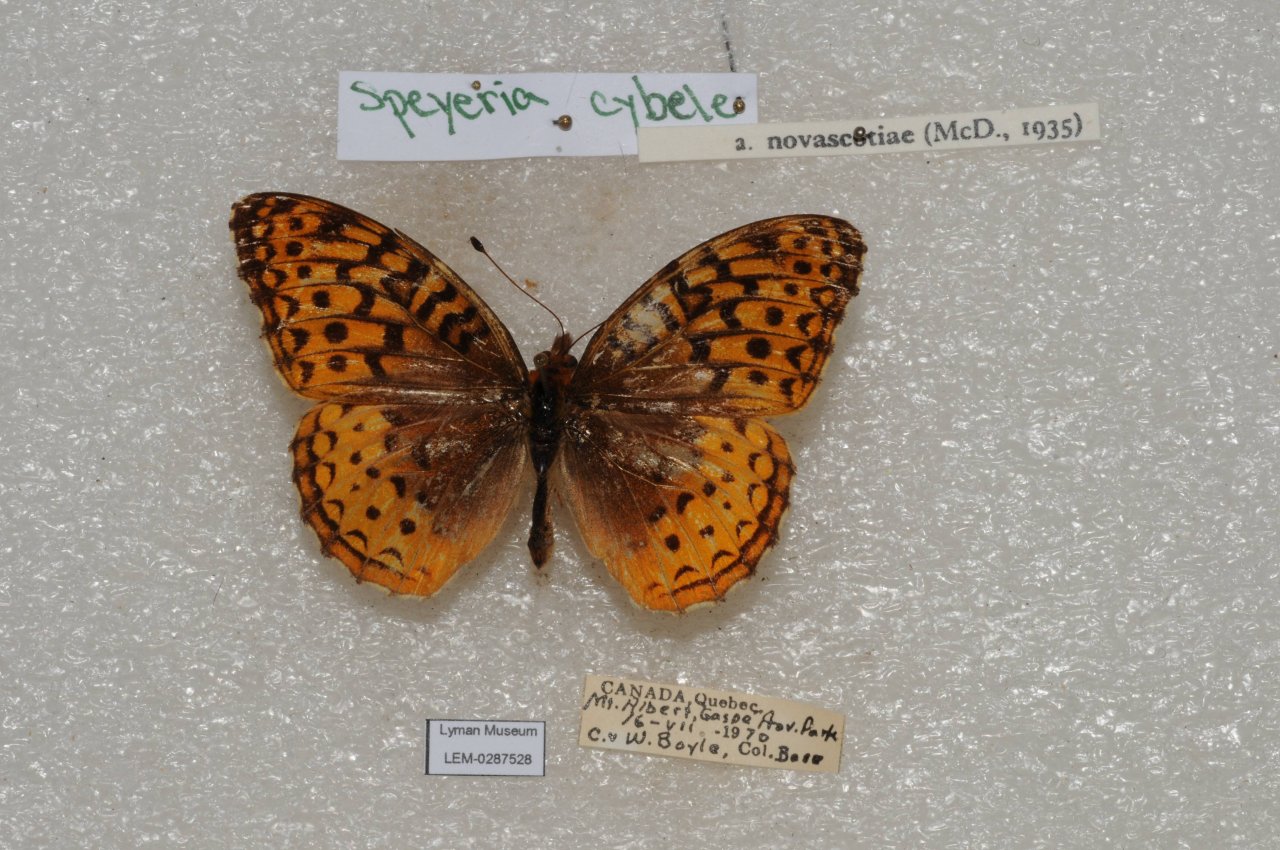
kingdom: Animalia
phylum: Arthropoda
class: Insecta
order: Lepidoptera
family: Nymphalidae
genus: Speyeria
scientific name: Speyeria cybele
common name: Great Spangled Fritillary
